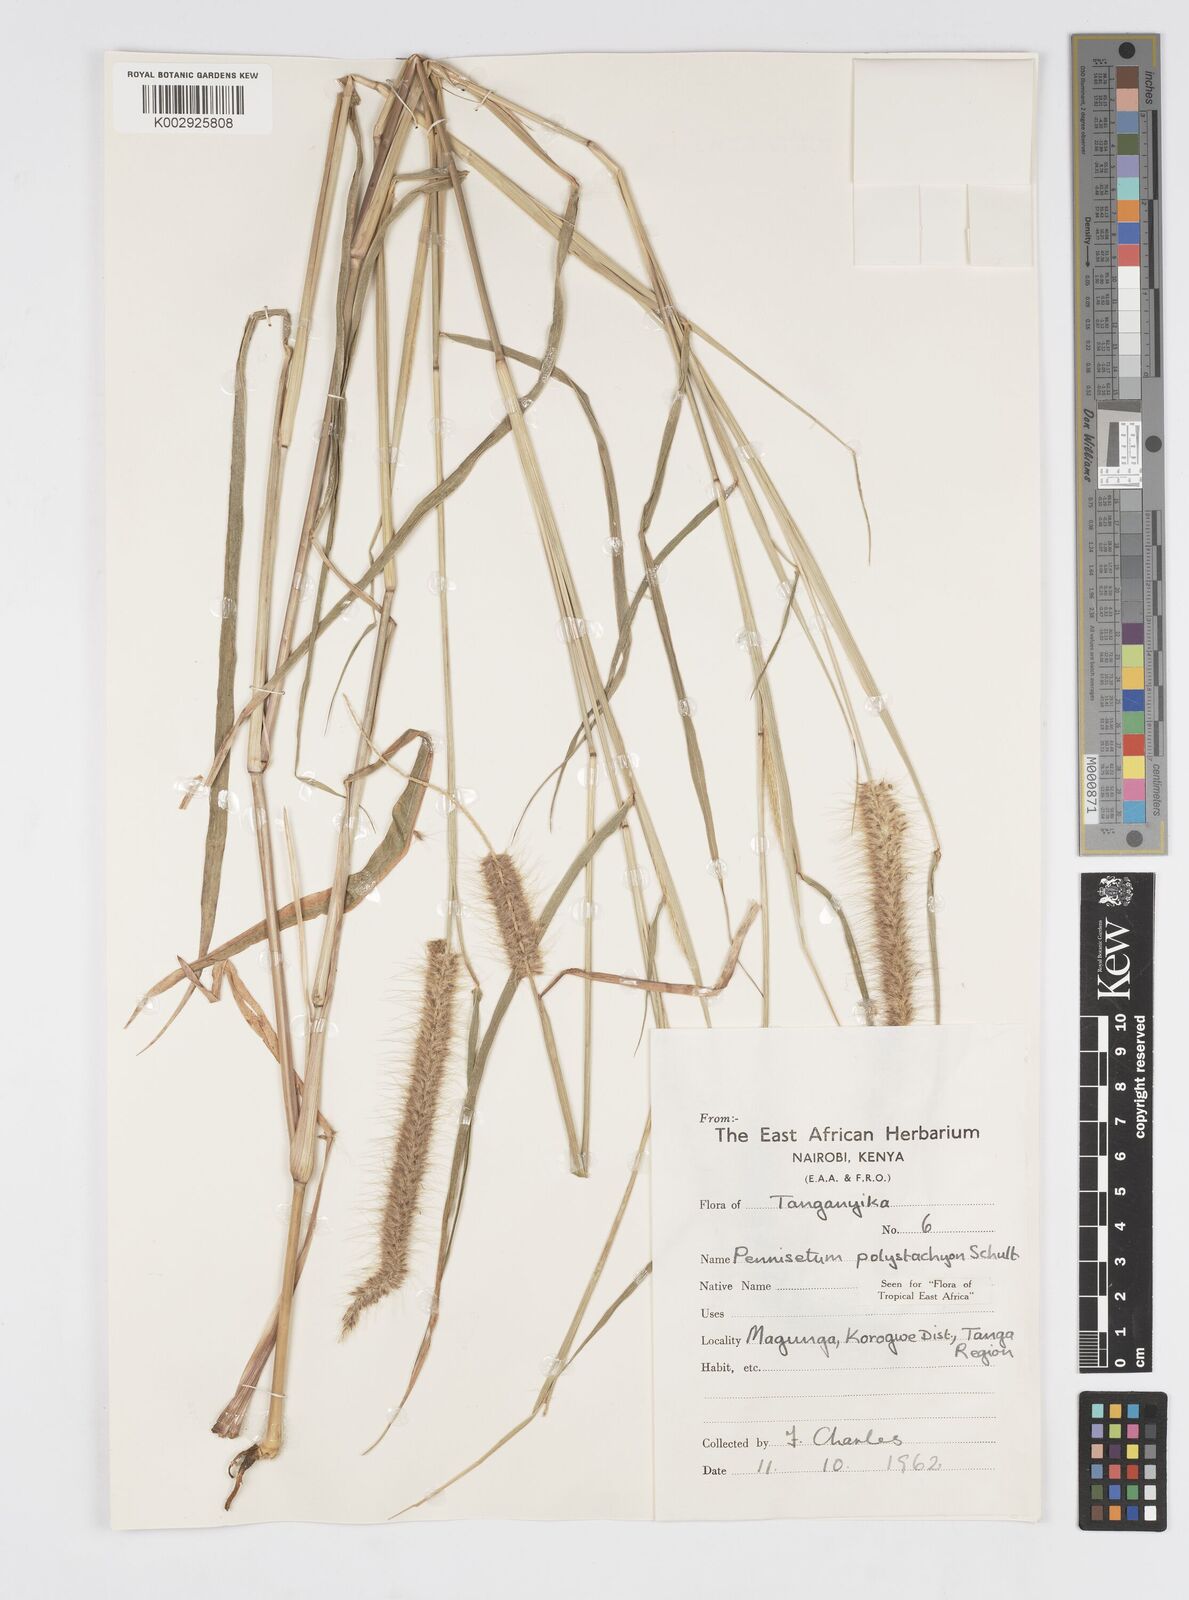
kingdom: Plantae
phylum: Tracheophyta
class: Liliopsida
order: Poales
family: Poaceae
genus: Setaria
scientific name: Setaria parviflora
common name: Knotroot bristle-grass
